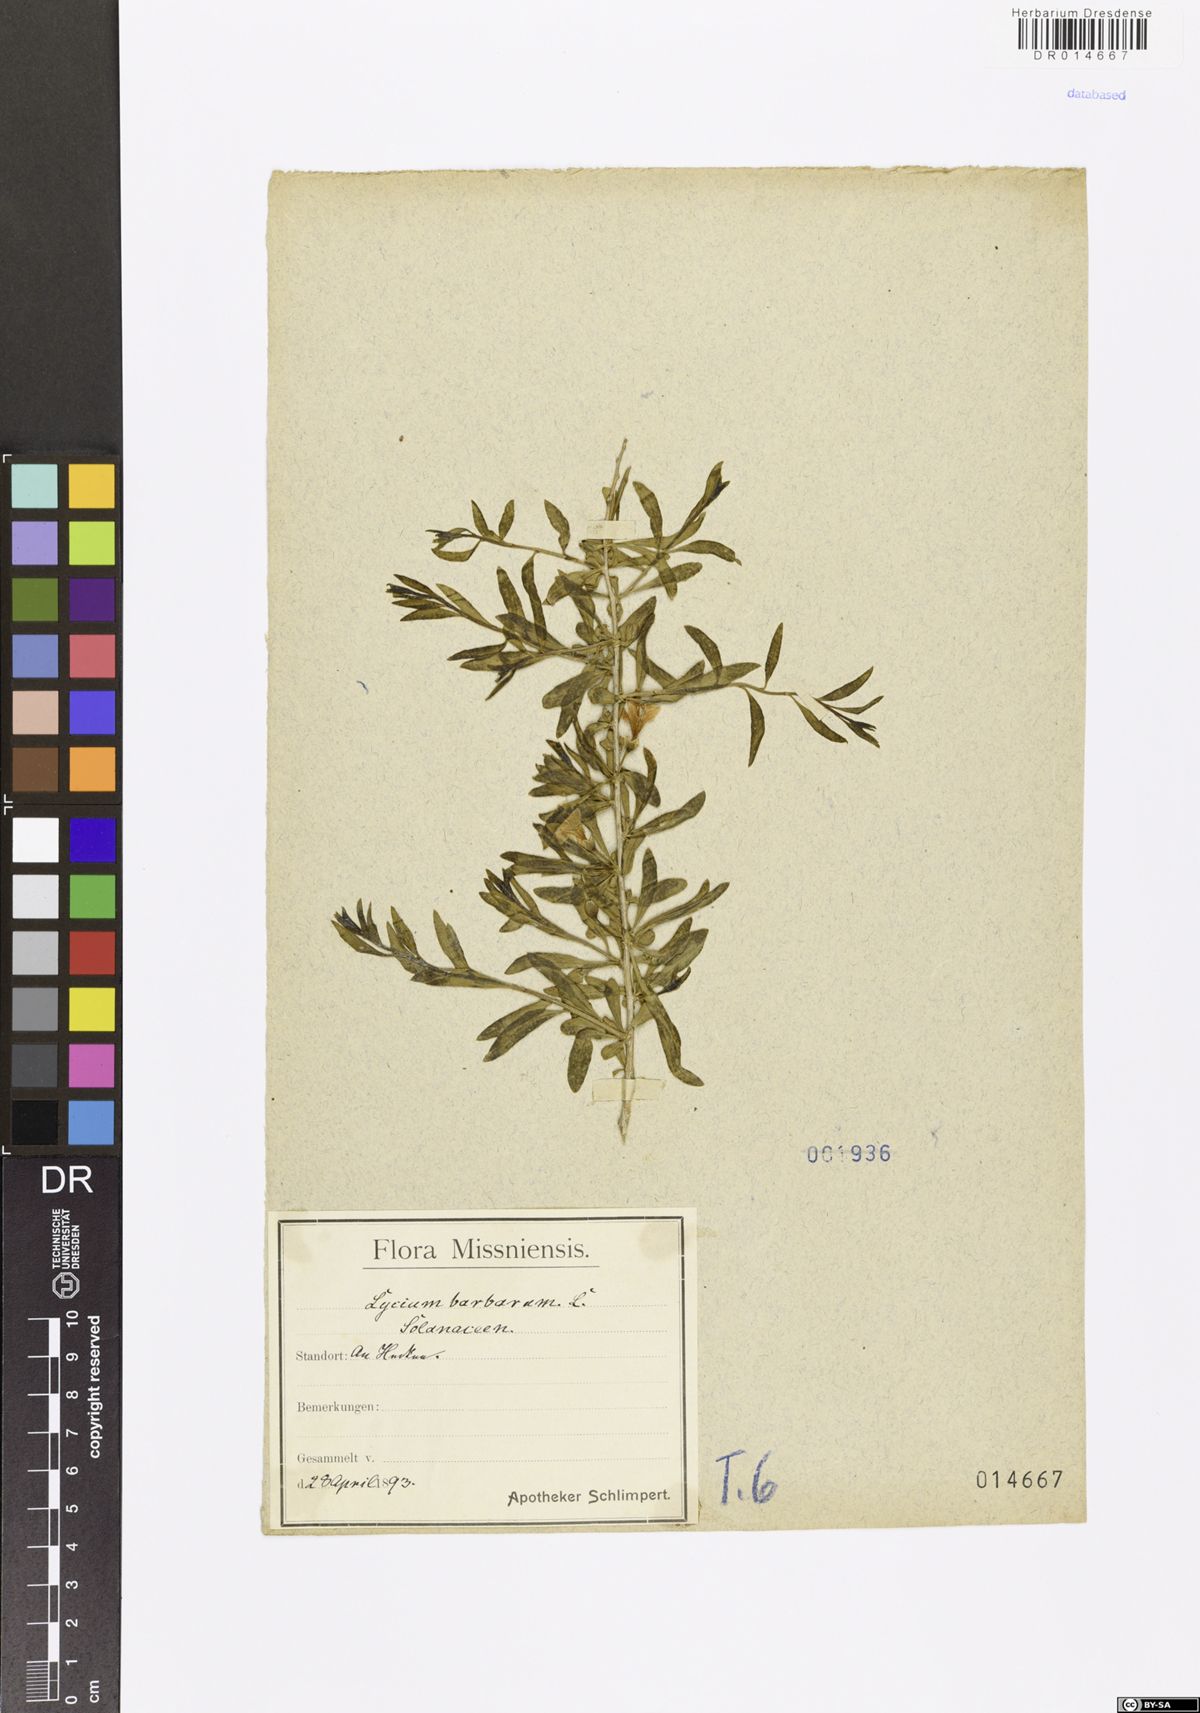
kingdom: Plantae
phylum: Tracheophyta
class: Magnoliopsida
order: Solanales
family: Solanaceae
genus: Lycium
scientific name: Lycium barbarum
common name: Duke of argyll's teaplant
